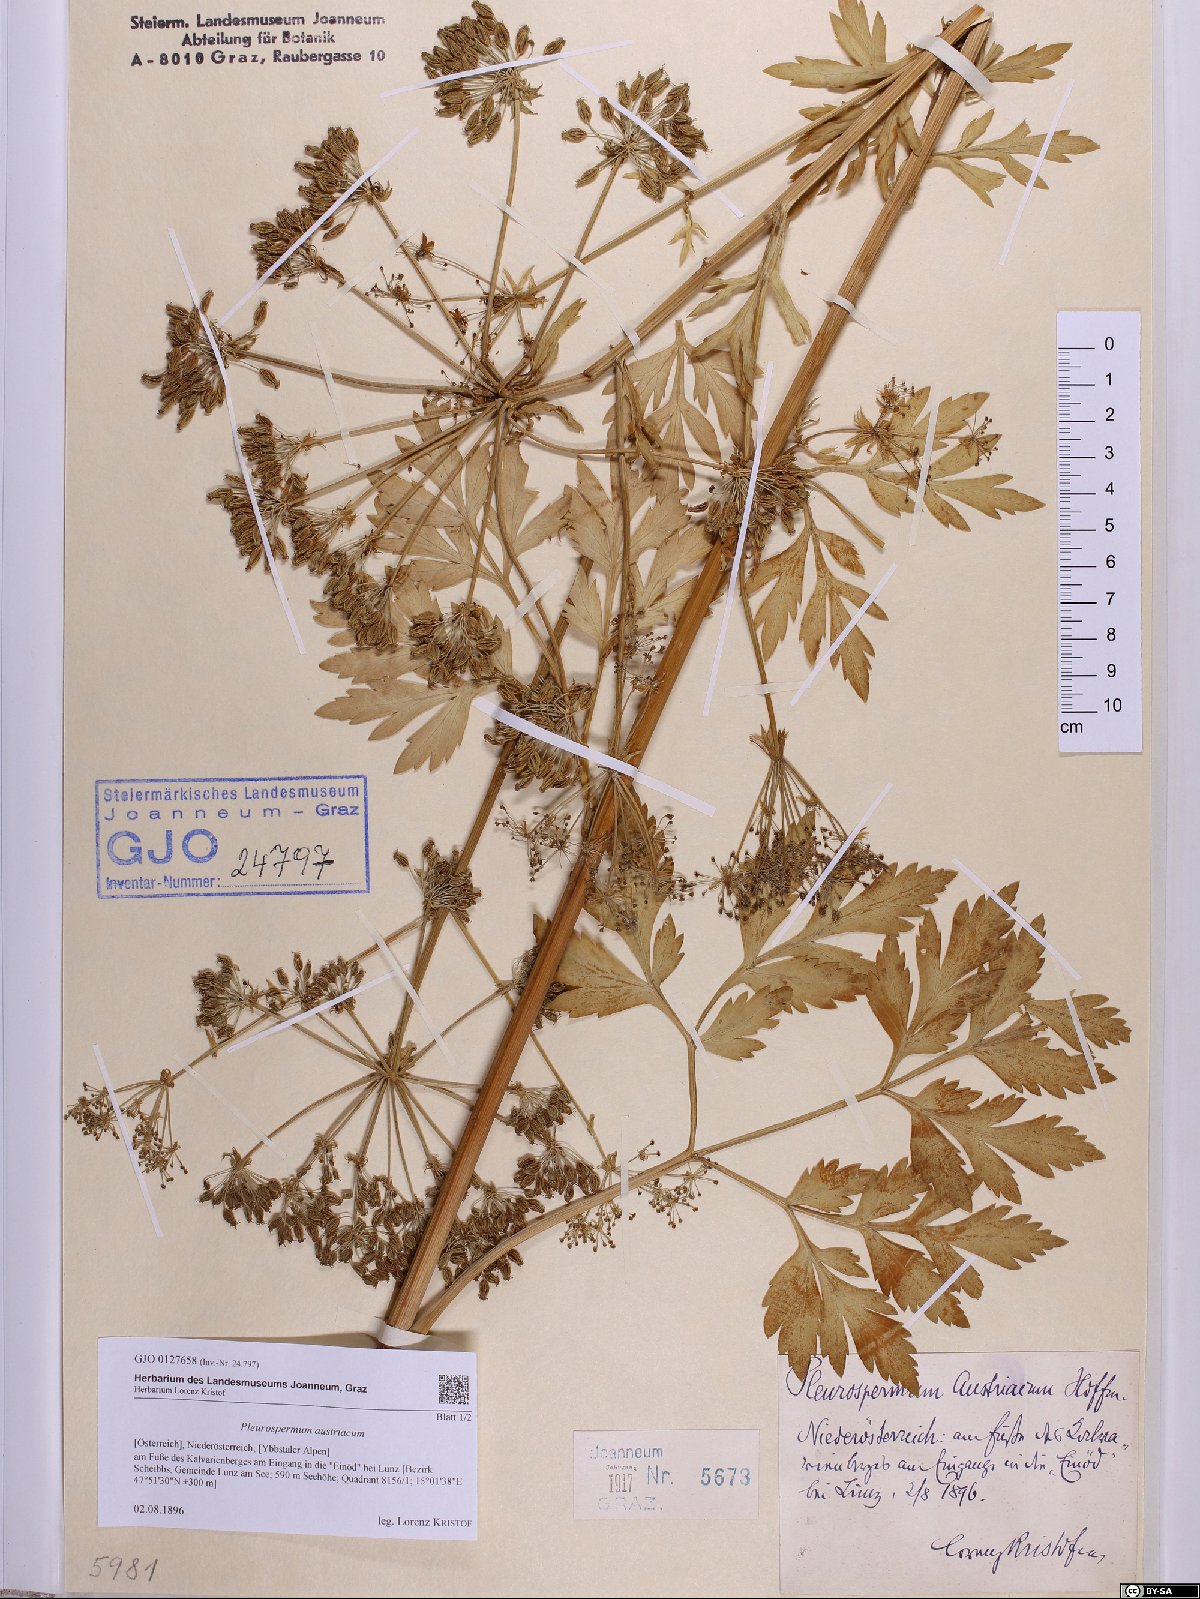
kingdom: Plantae
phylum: Tracheophyta
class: Magnoliopsida
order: Apiales
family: Apiaceae
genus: Pleurospermum
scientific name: Pleurospermum austriacum
